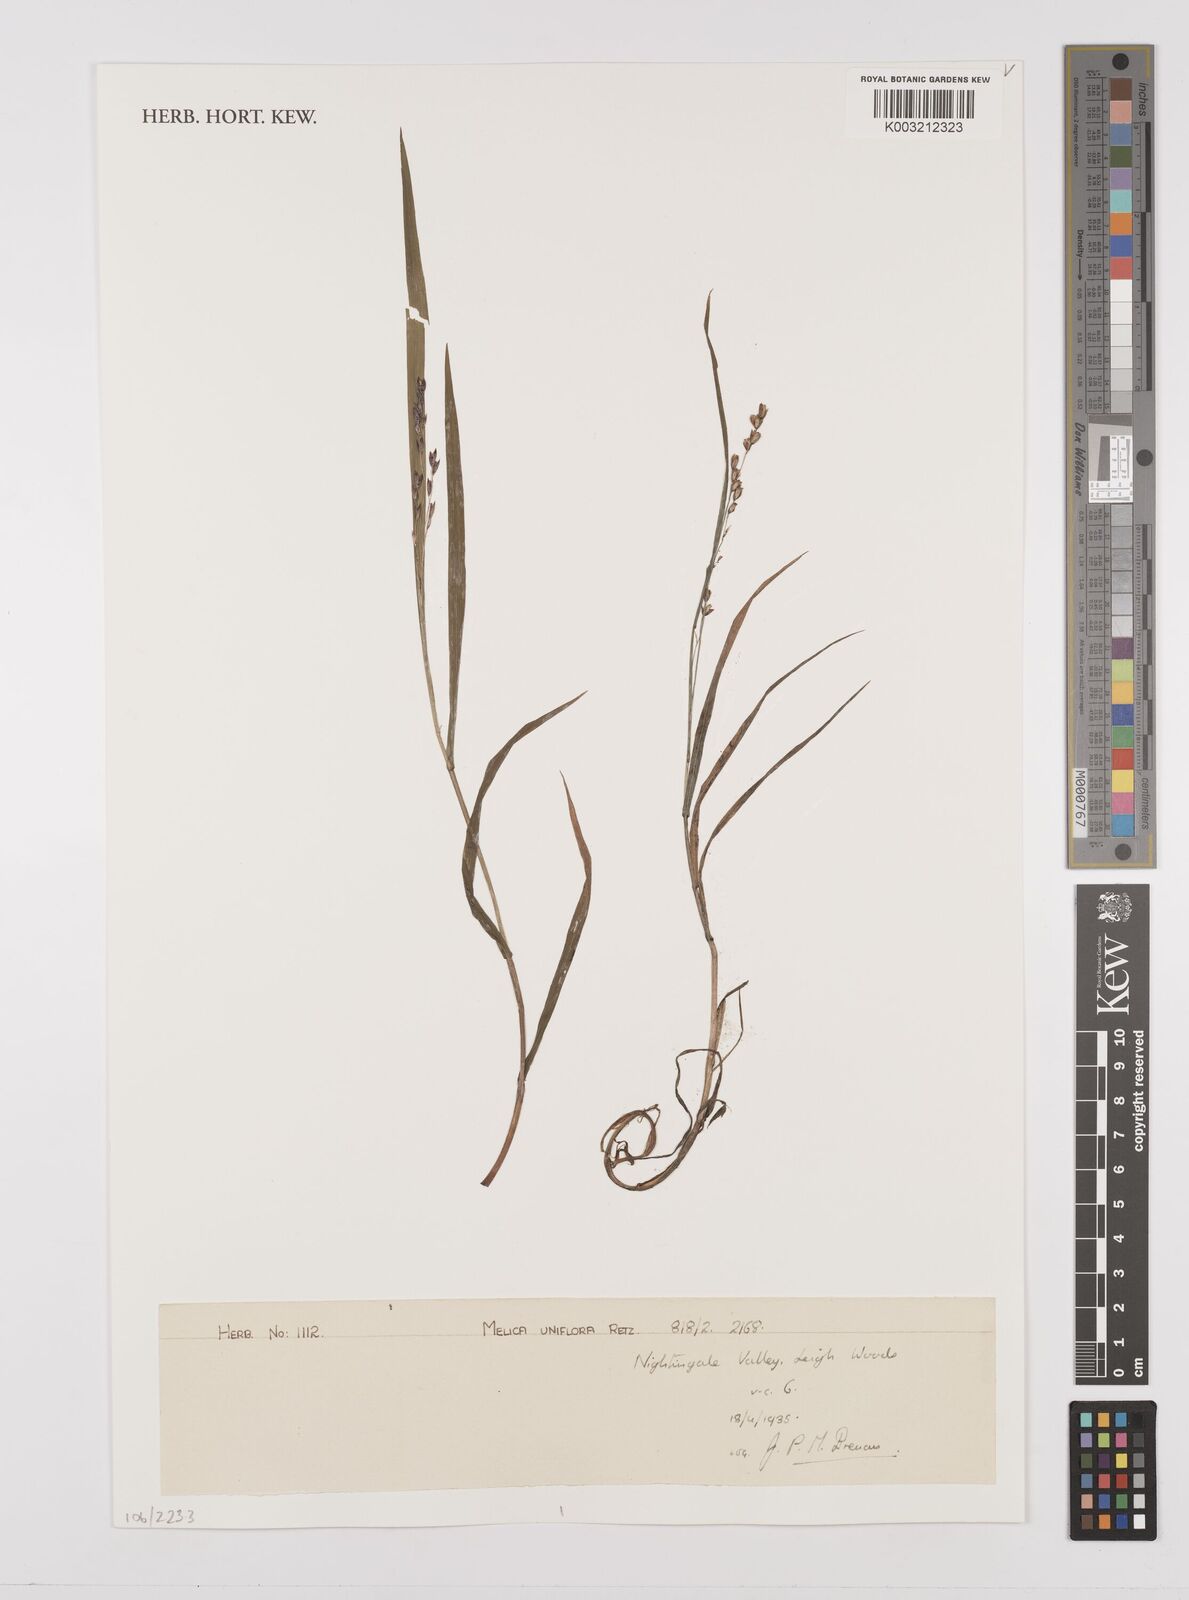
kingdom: Plantae
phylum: Tracheophyta
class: Liliopsida
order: Poales
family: Poaceae
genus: Melica
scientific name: Melica uniflora
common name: Wood melick
